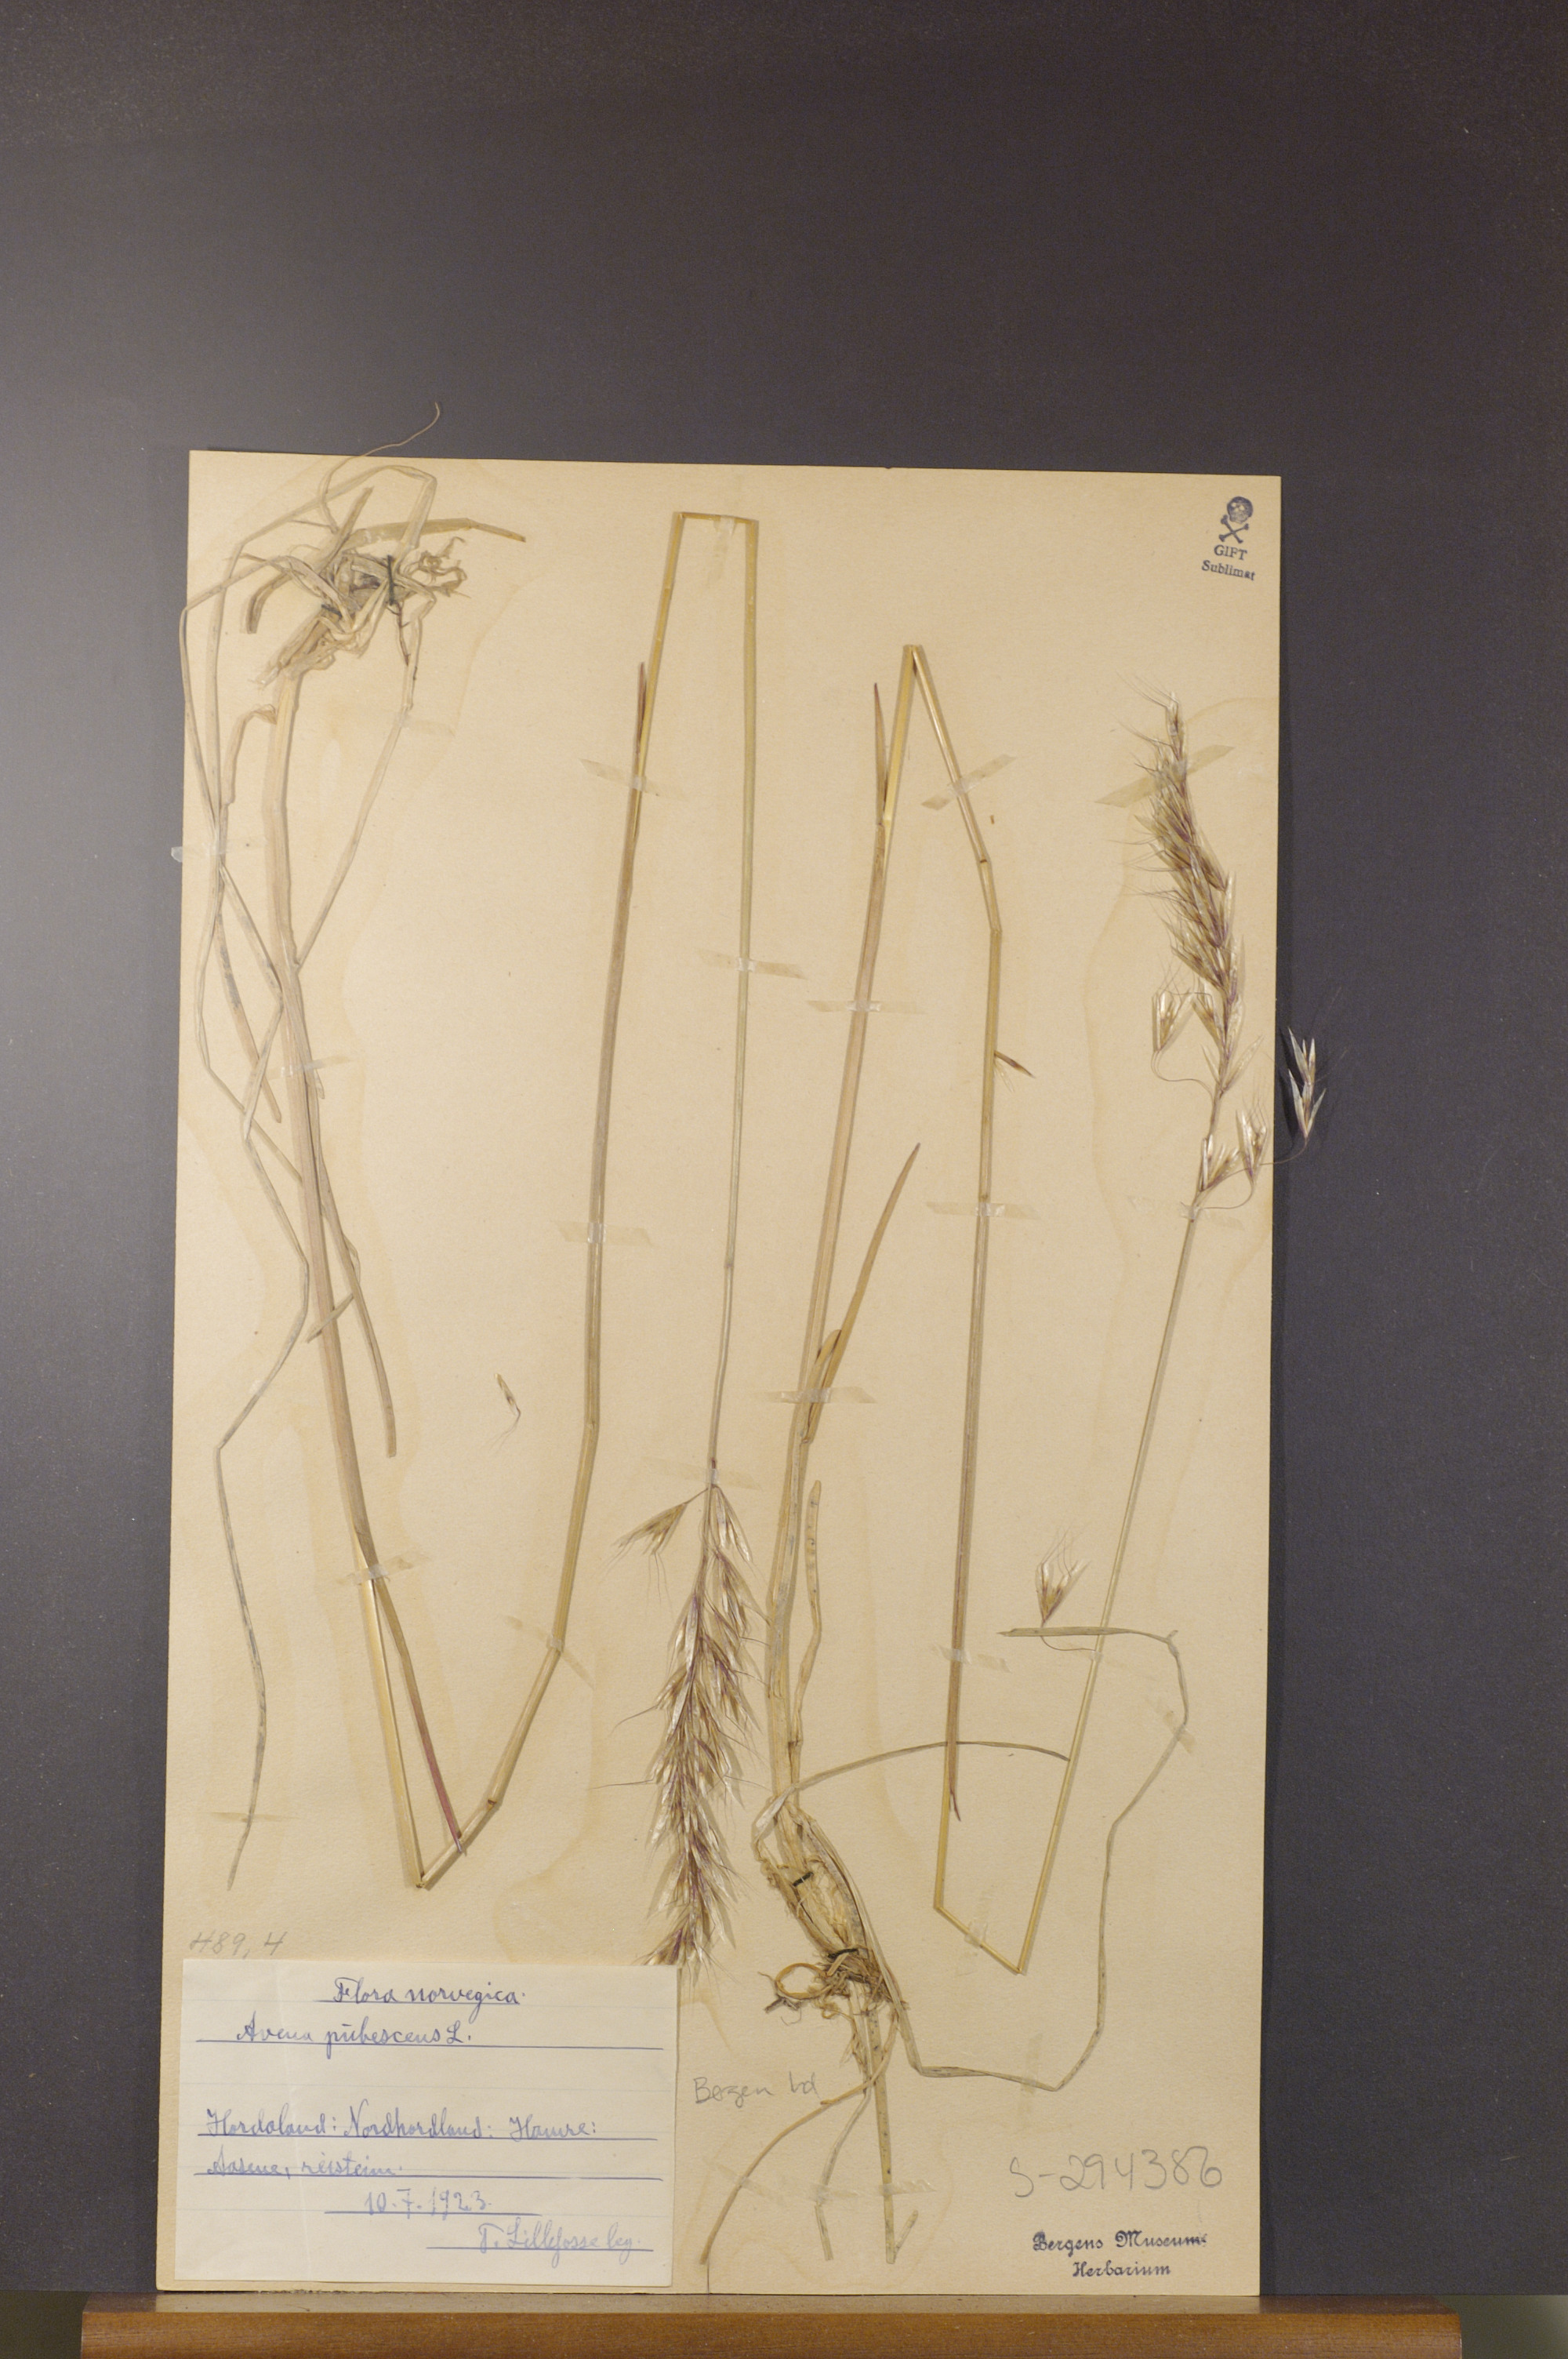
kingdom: Plantae
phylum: Tracheophyta
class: Liliopsida
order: Poales
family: Poaceae
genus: Avenula
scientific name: Avenula pubescens
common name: Downy alpine oatgrass
